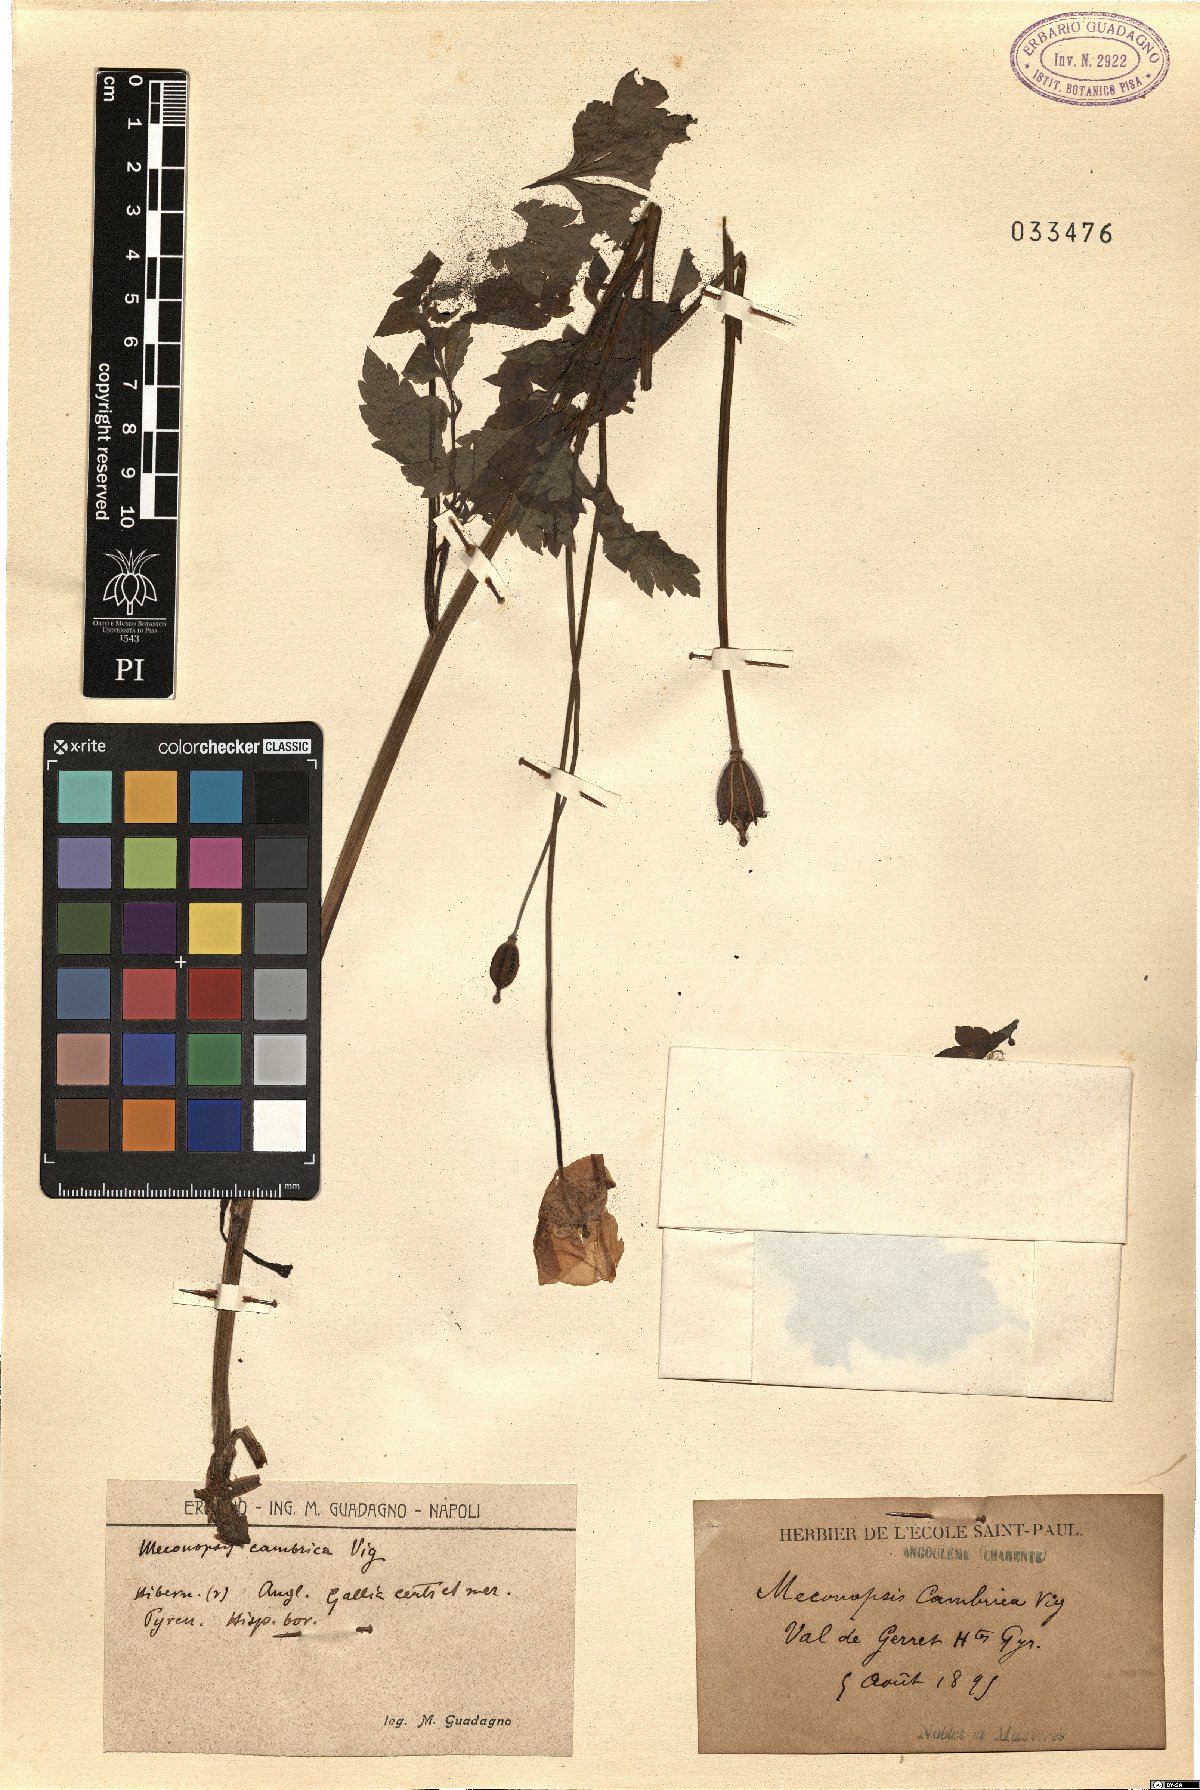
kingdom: Plantae
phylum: Tracheophyta
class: Magnoliopsida
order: Ranunculales
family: Papaveraceae
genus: Papaver
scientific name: Papaver cambricum
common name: Poppy
